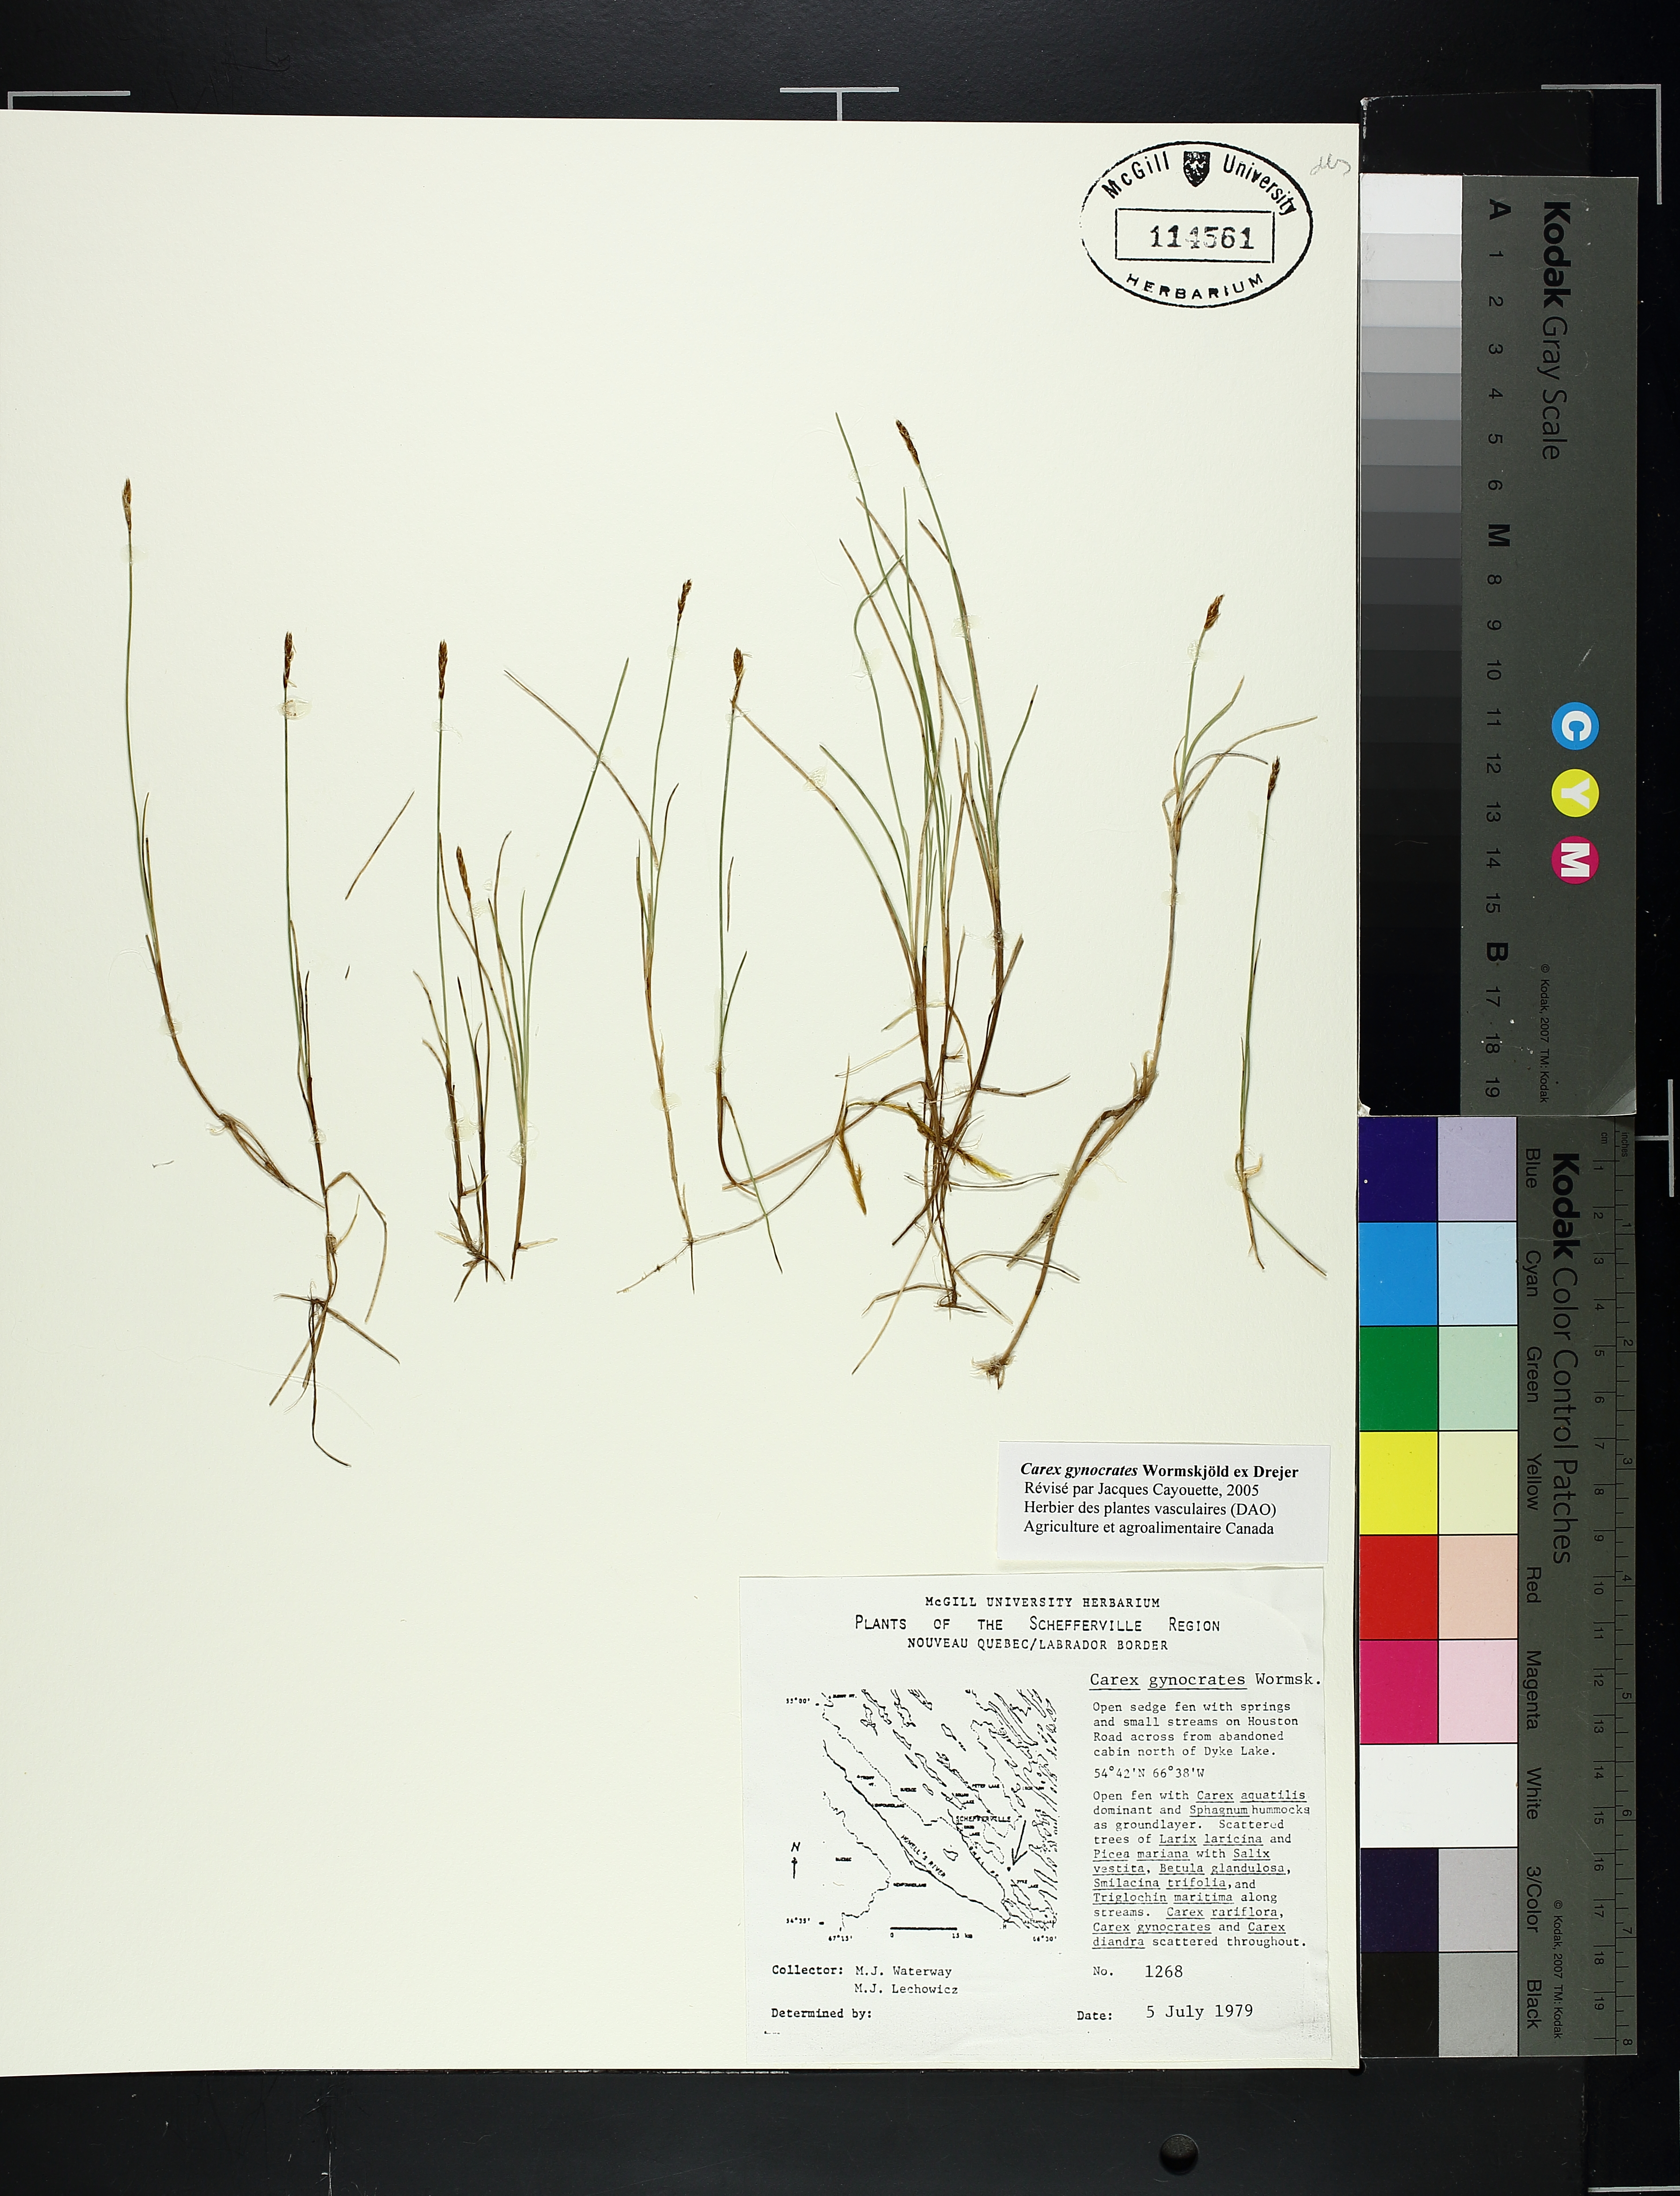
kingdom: Plantae
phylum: Tracheophyta
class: Liliopsida
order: Poales
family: Cyperaceae
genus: Carex
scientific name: Carex gynocrates
